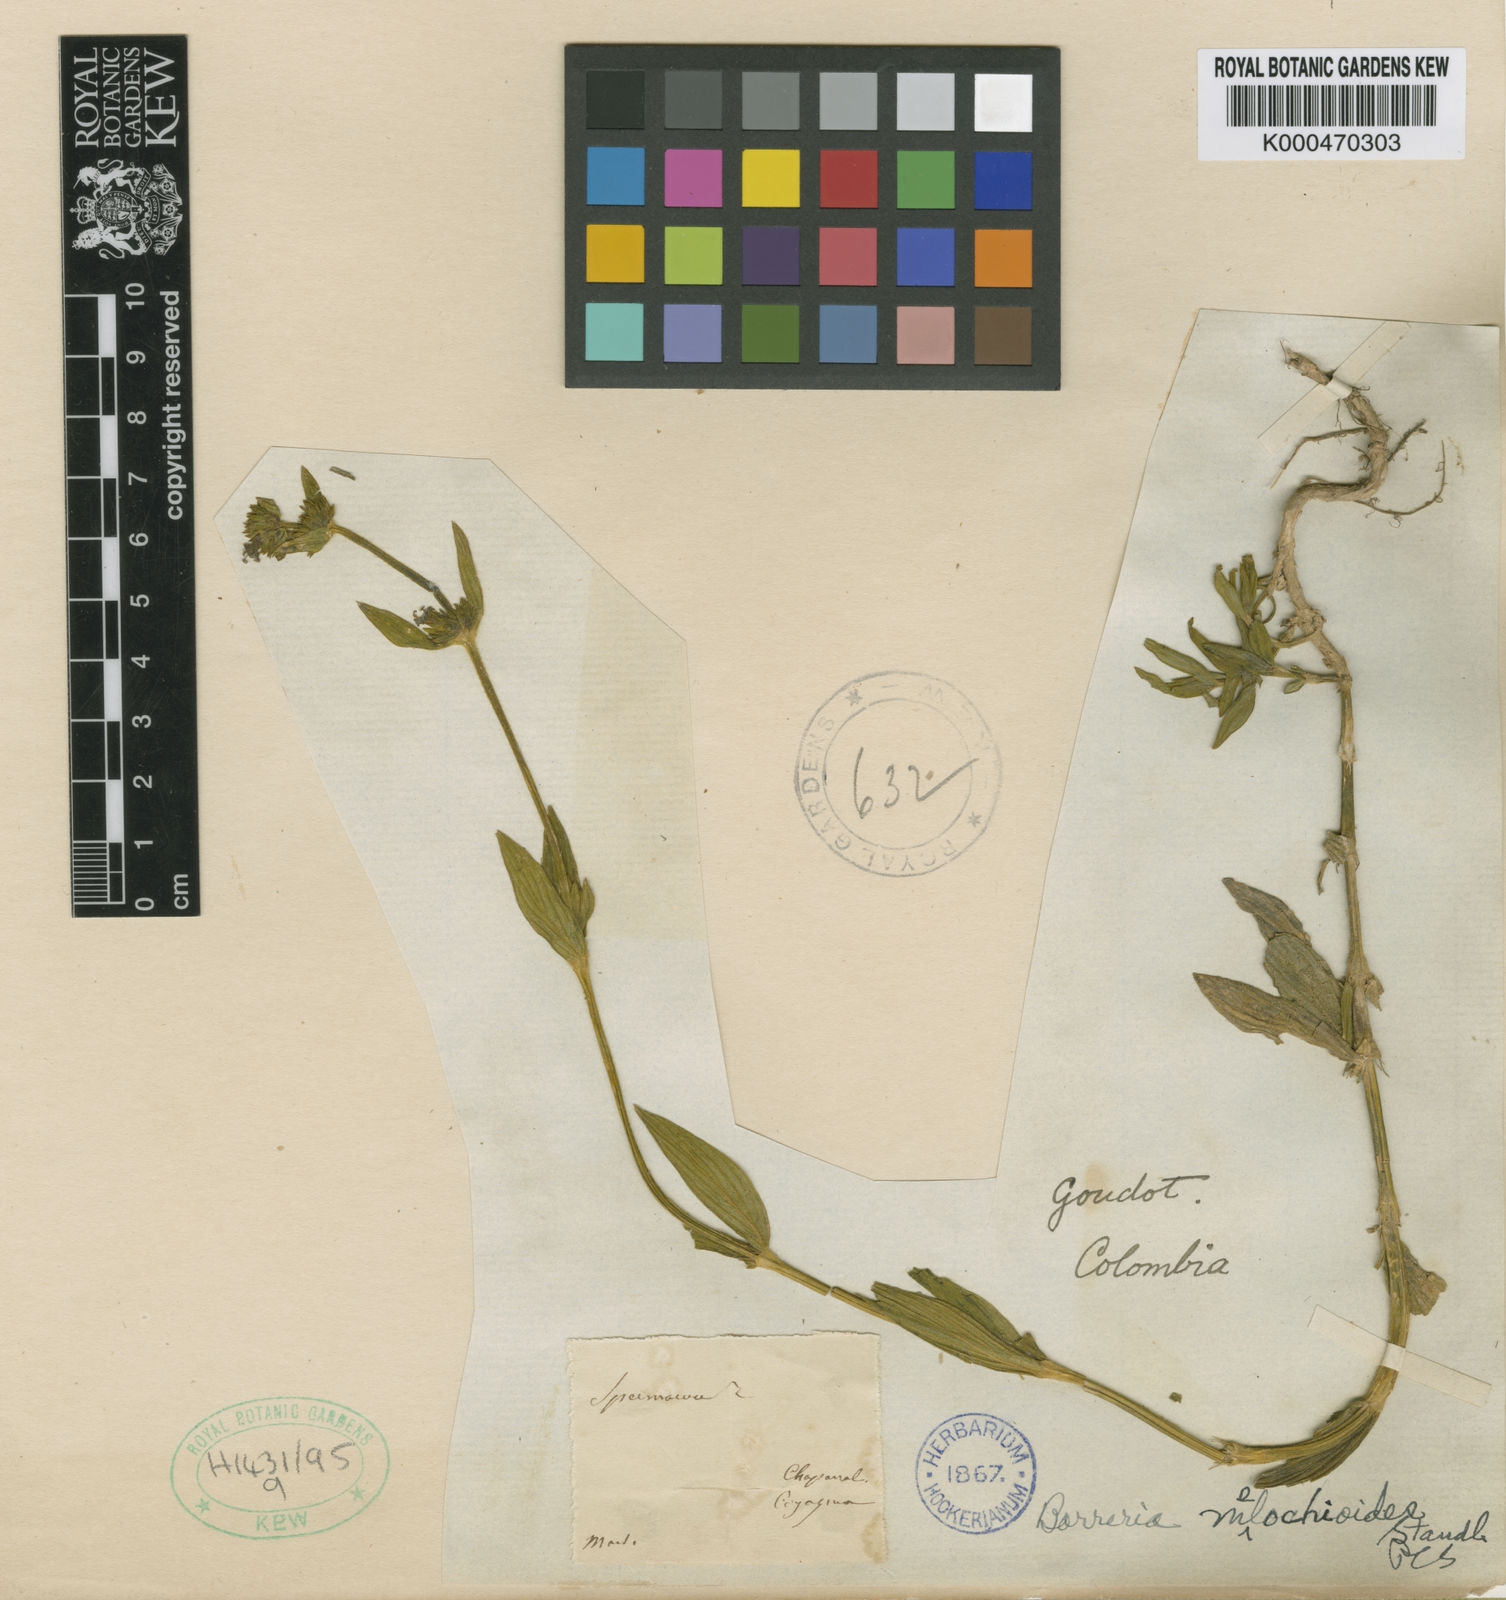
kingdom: Plantae
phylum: Tracheophyta
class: Magnoliopsida
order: Gentianales
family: Rubiaceae
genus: Spermacoce
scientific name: Spermacoce melochioides
